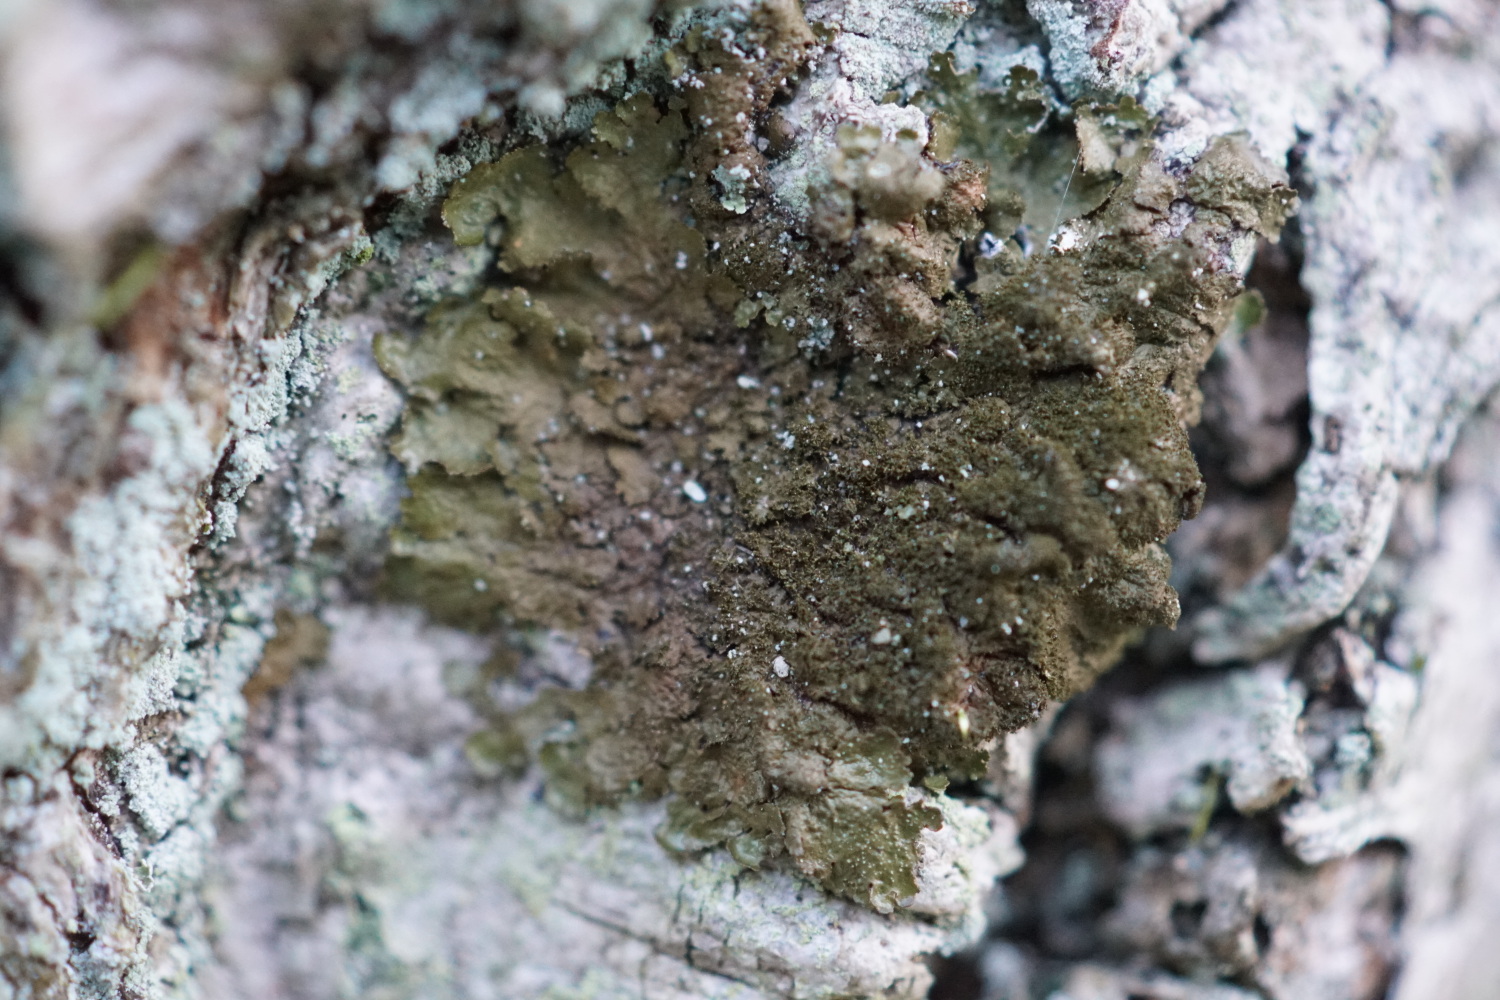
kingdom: Fungi
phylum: Ascomycota
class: Lecanoromycetes
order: Lecanorales
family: Parmeliaceae
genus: Melanelixia
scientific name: Melanelixia subaurifera
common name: guldpudret skållav
